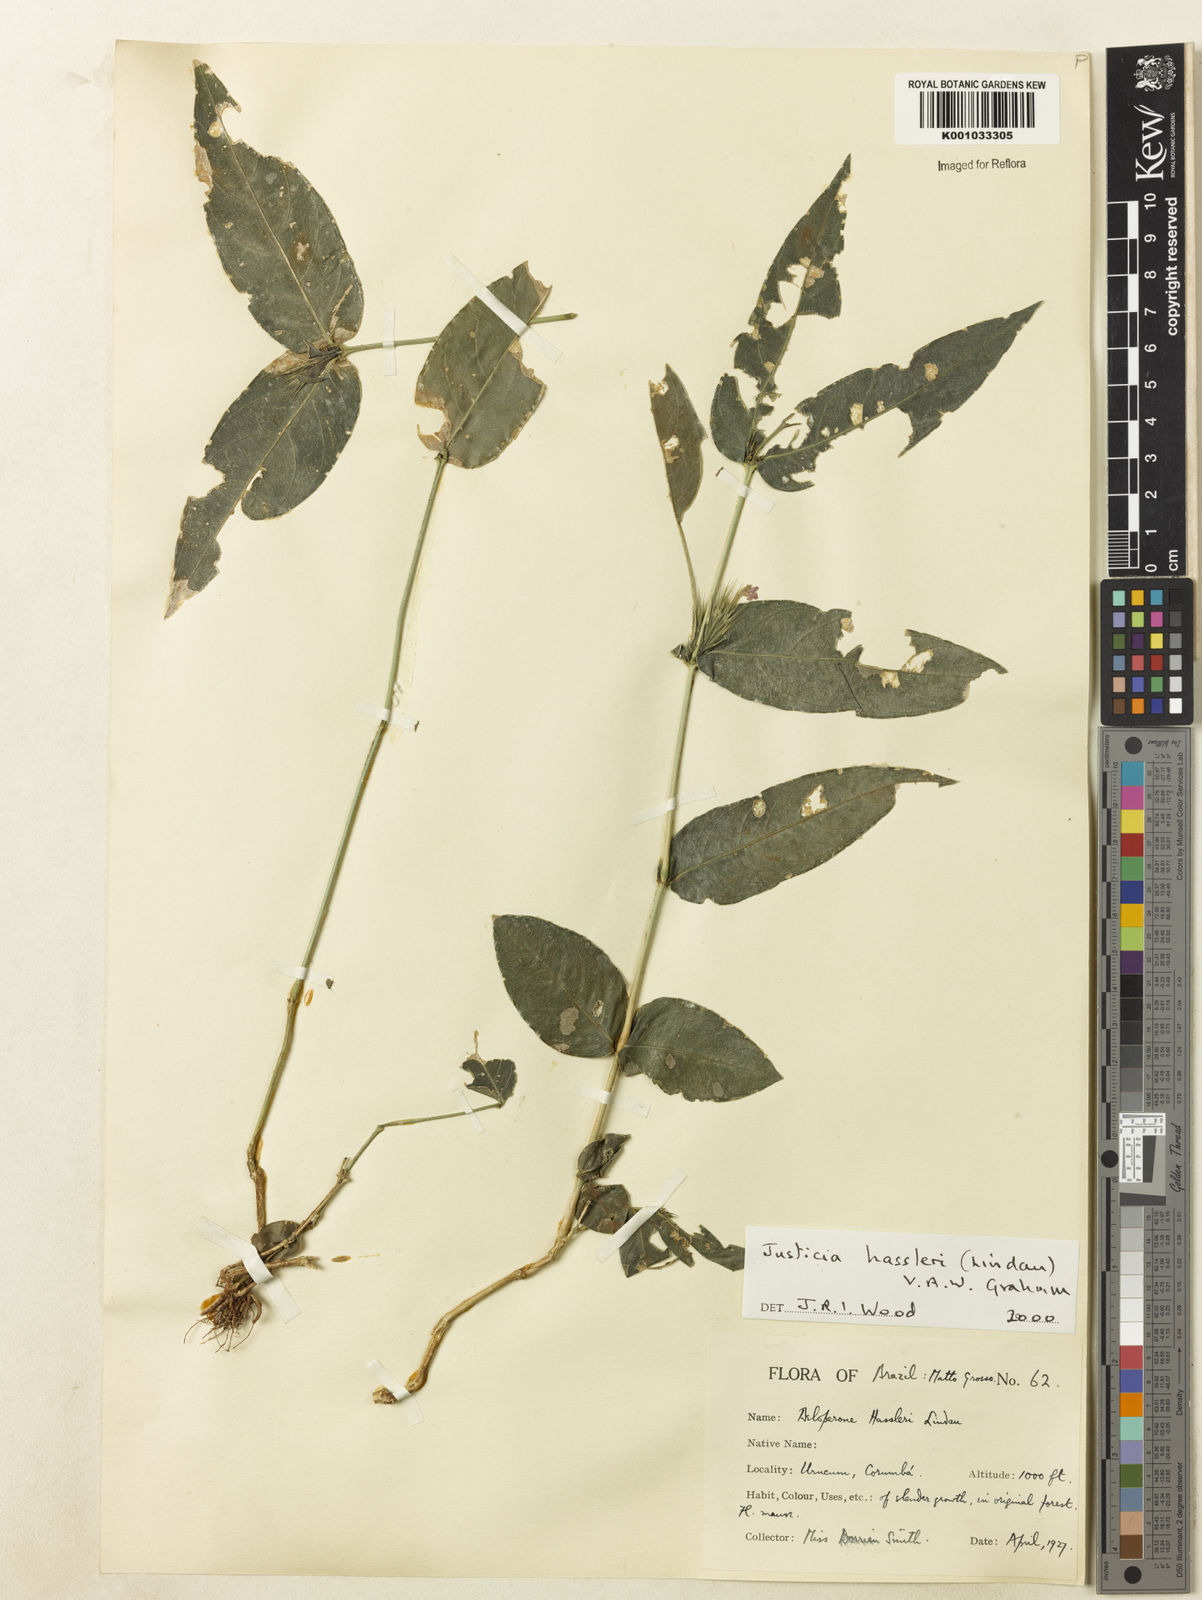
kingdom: Plantae
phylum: Tracheophyta
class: Magnoliopsida
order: Lamiales
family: Acanthaceae
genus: Justicia
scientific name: Justicia hassleri
